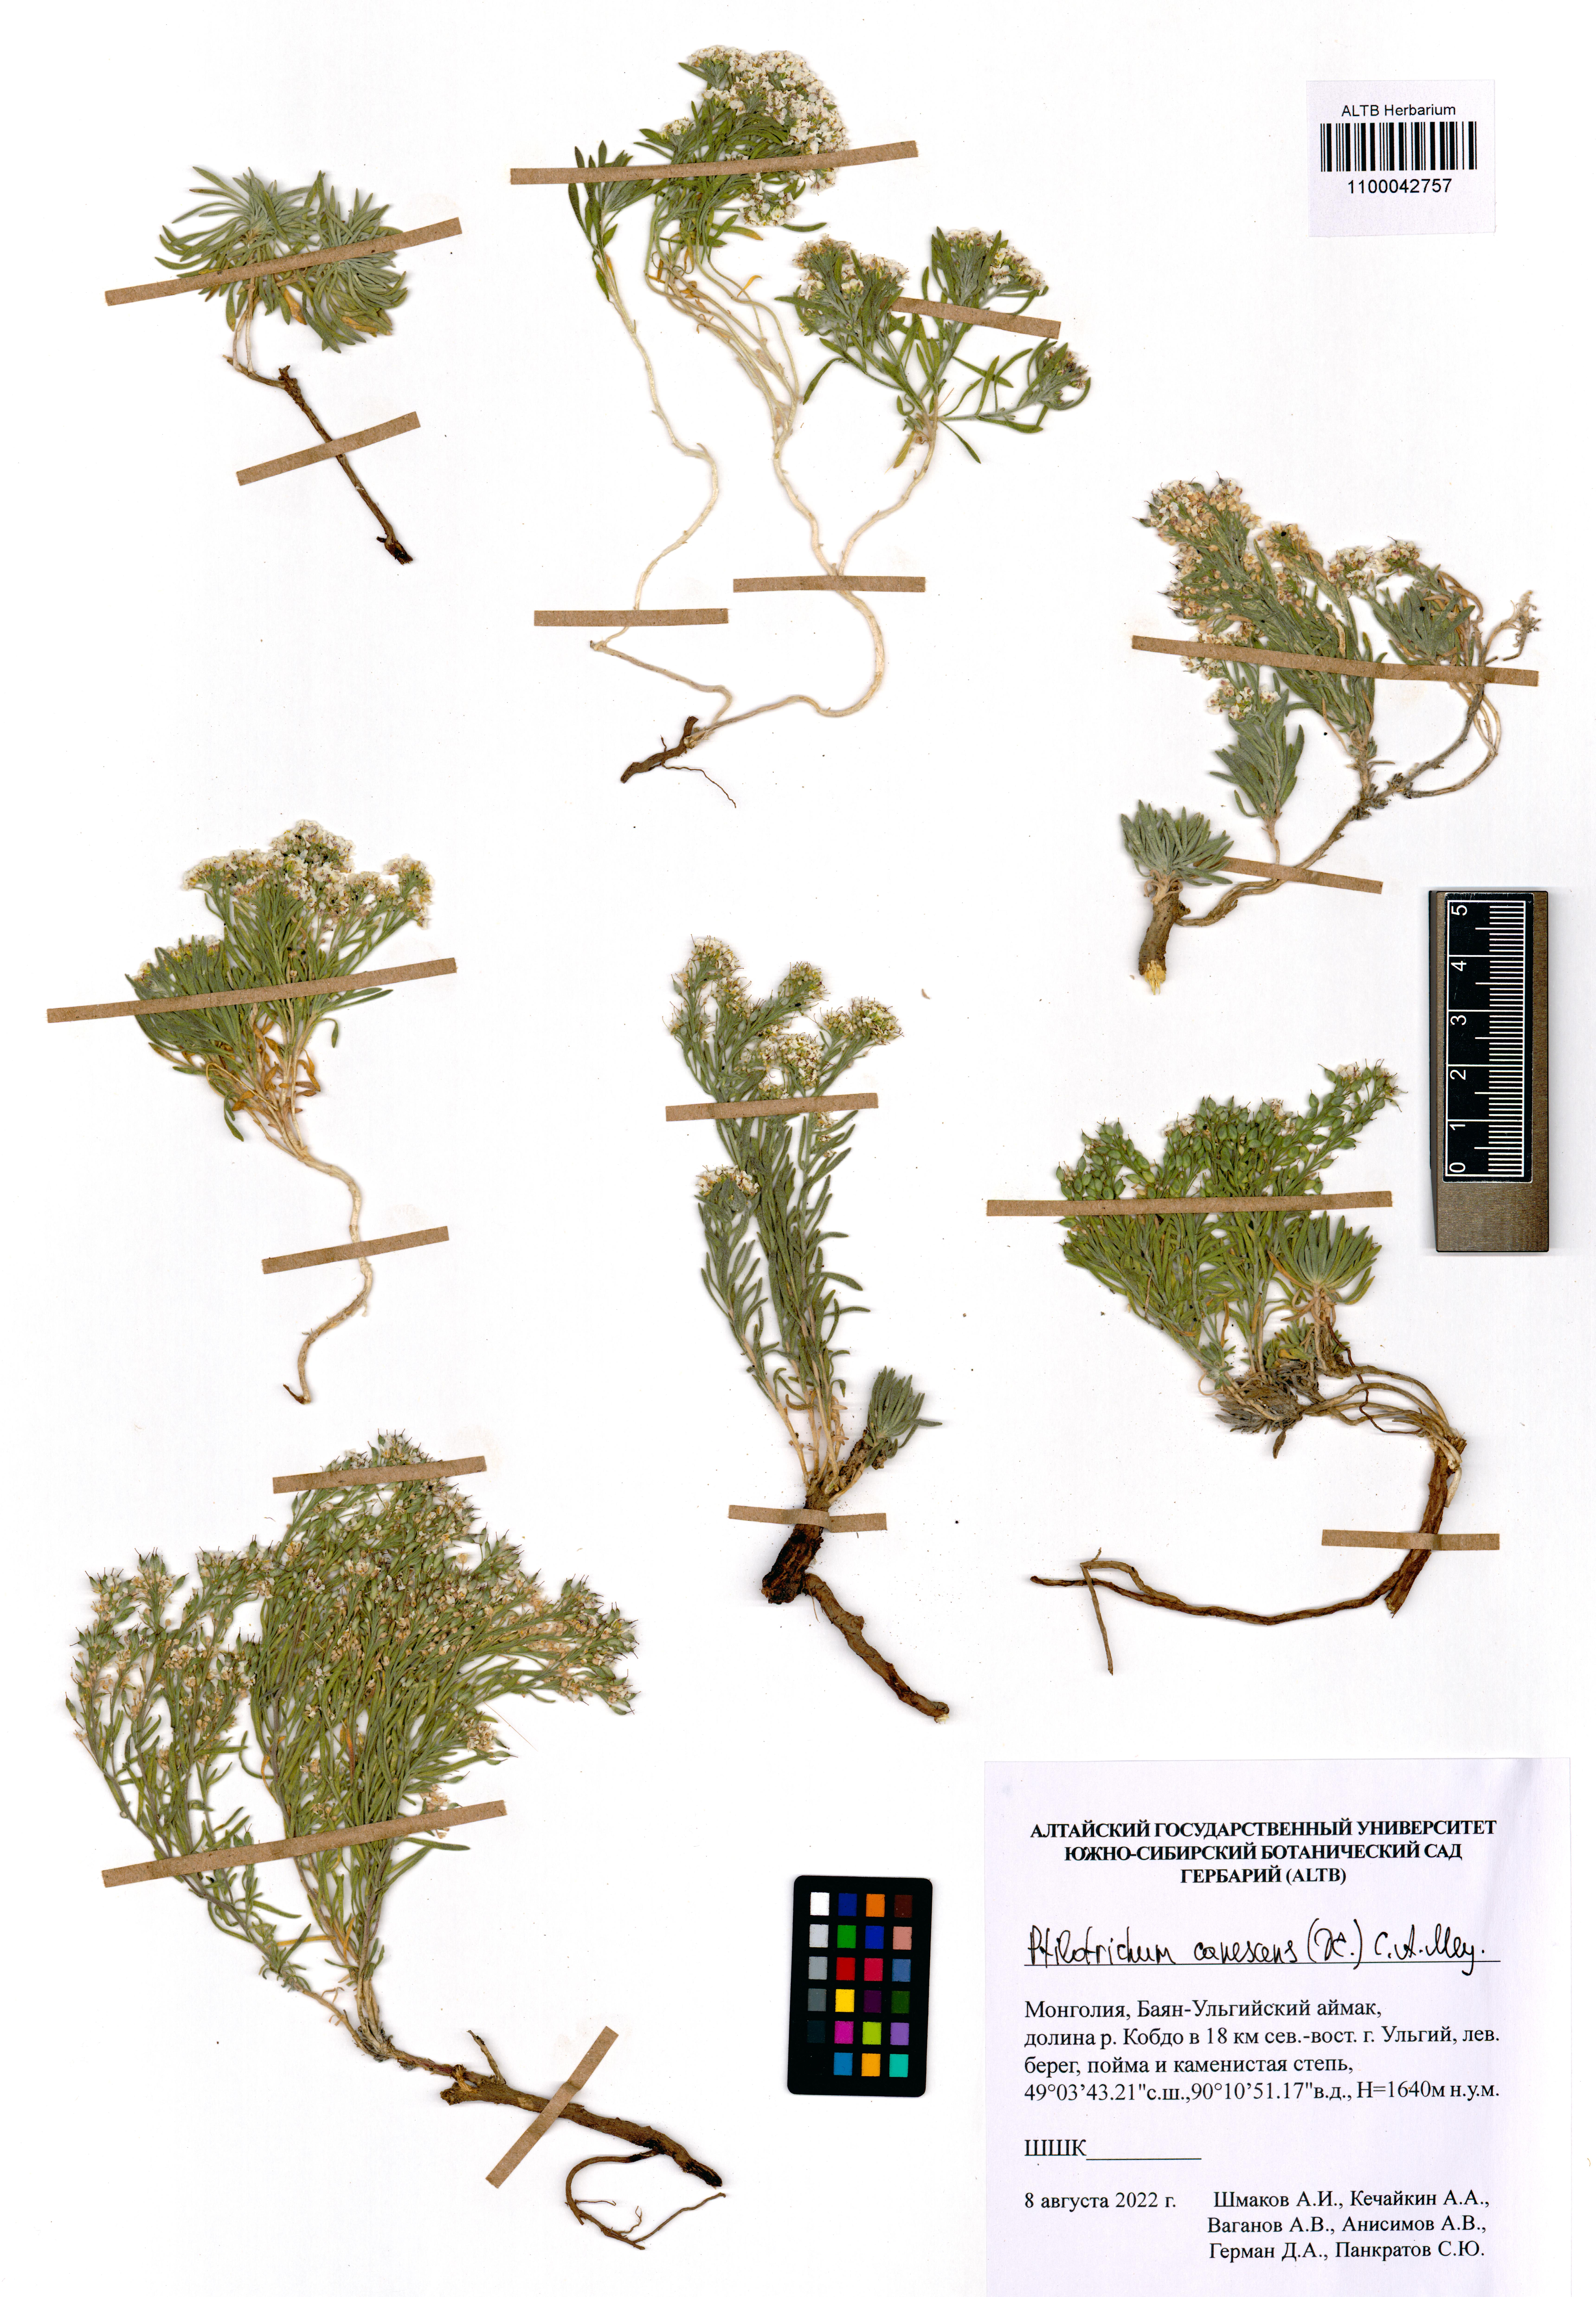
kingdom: Plantae
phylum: Tracheophyta
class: Magnoliopsida
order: Brassicales
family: Brassicaceae
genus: Stevenia
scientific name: Stevenia canescens
